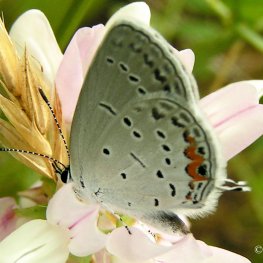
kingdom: Animalia
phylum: Arthropoda
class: Insecta
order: Lepidoptera
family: Lycaenidae
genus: Elkalyce
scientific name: Elkalyce comyntas
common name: Eastern Tailed-Blue
